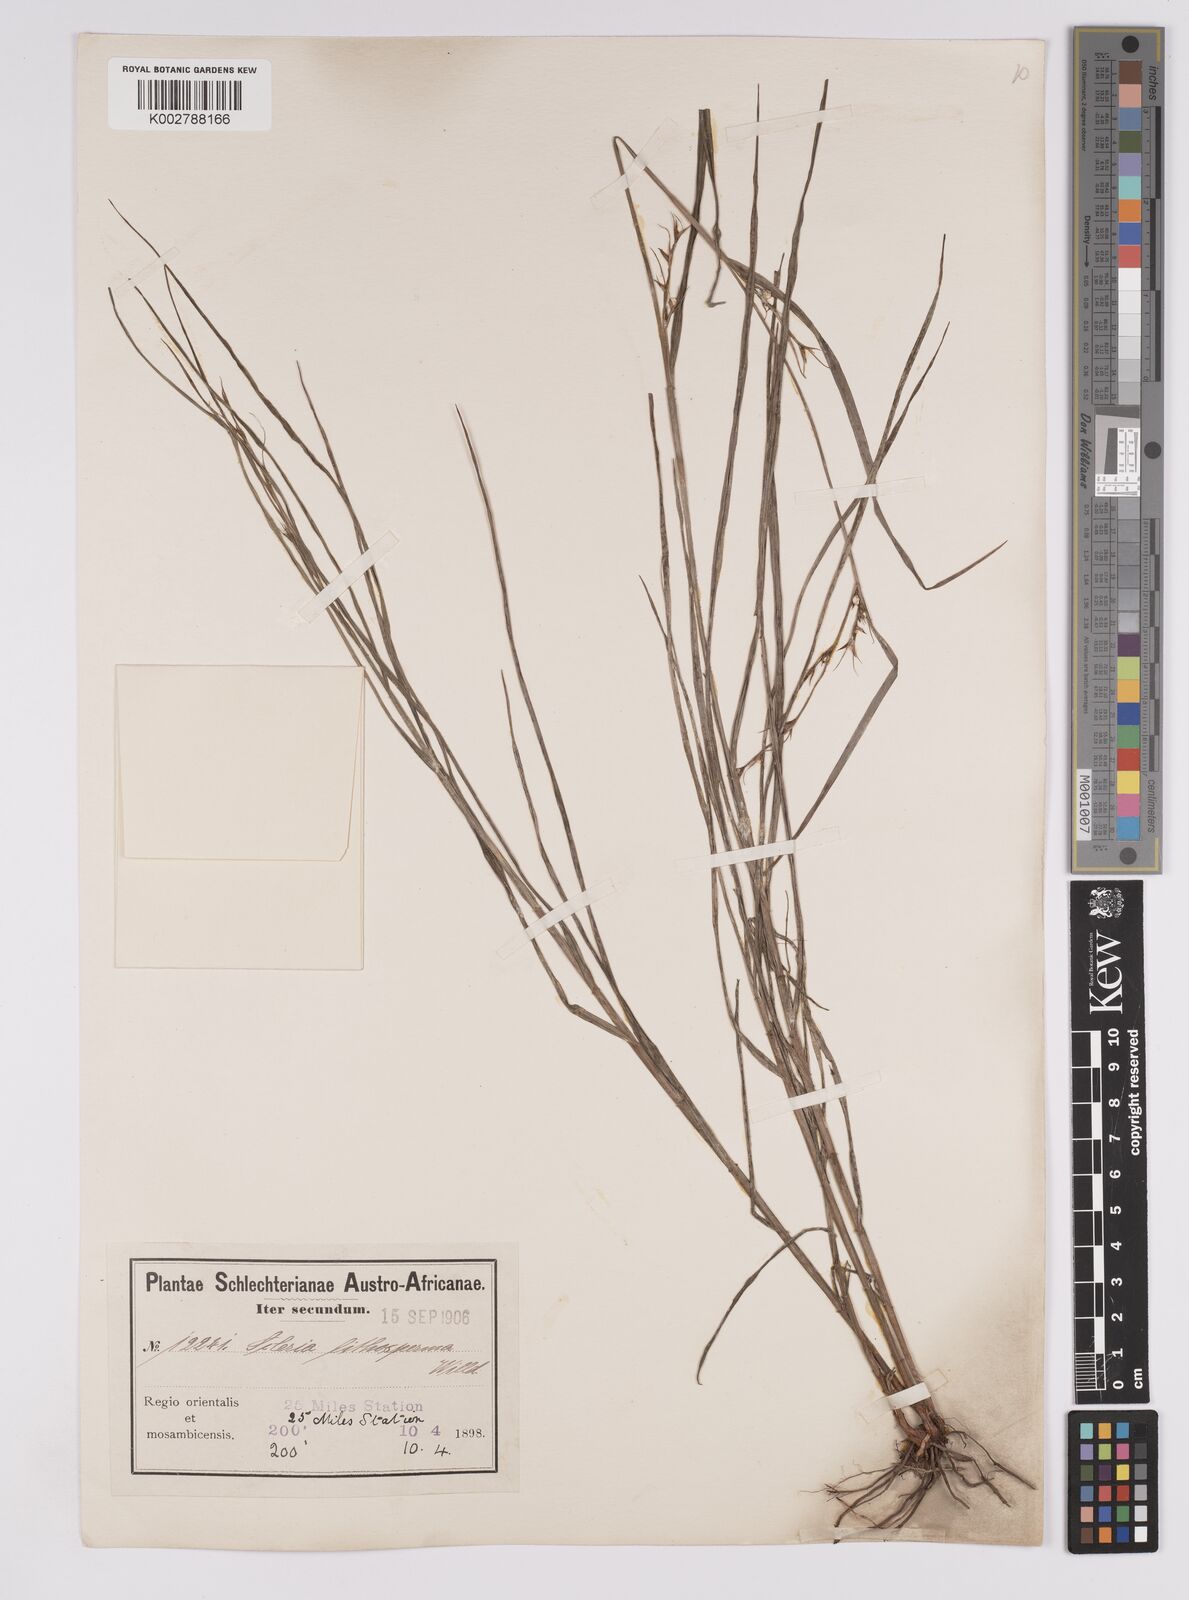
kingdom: Plantae
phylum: Tracheophyta
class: Liliopsida
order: Poales
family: Cyperaceae
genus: Scleria
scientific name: Scleria lithosperma
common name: Florida keys nut-rush
